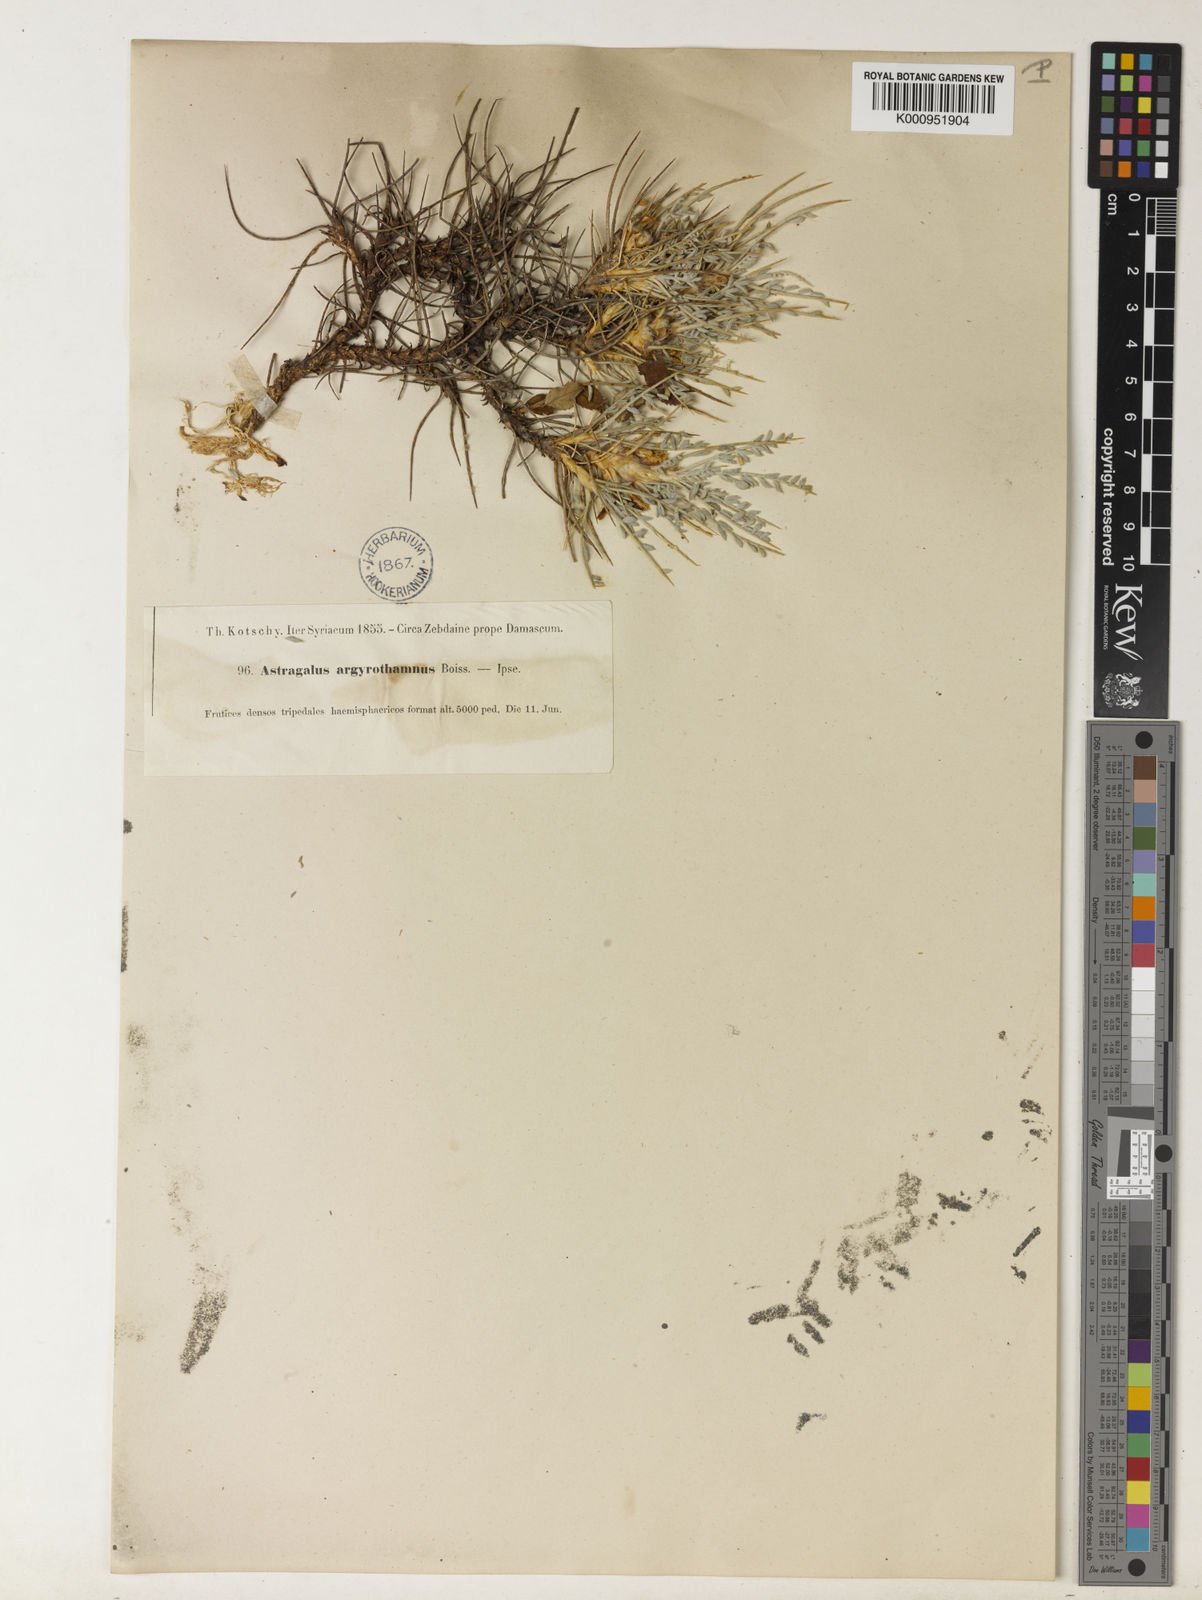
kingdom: Plantae
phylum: Tracheophyta
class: Magnoliopsida
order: Fabales
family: Fabaceae
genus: Astragalus
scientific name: Astragalus
